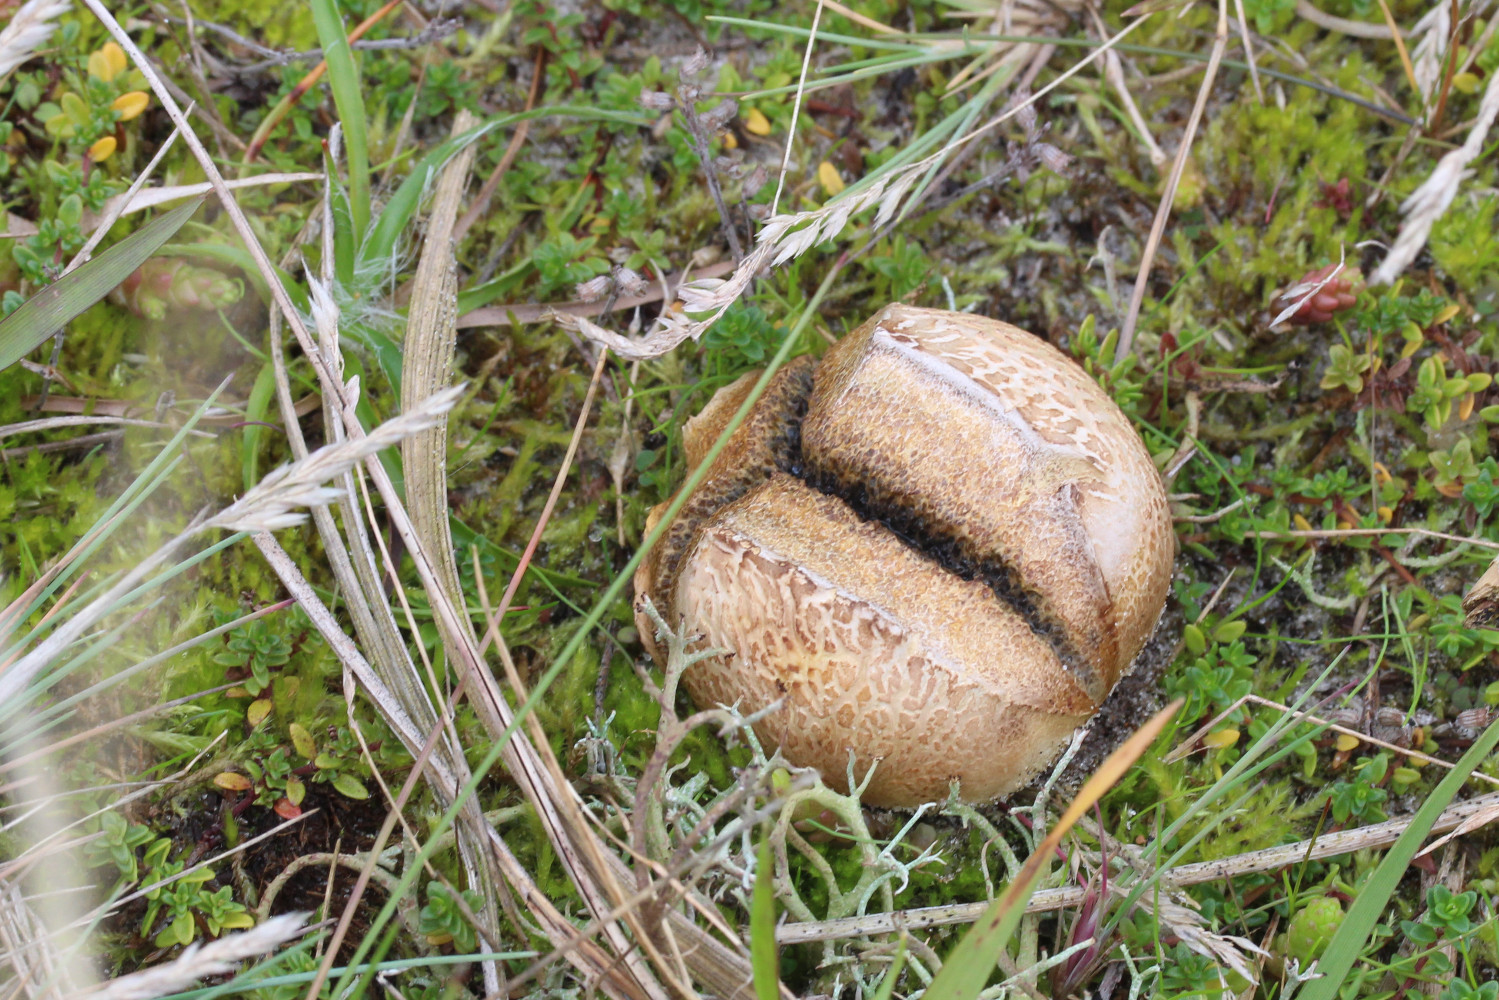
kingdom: Fungi
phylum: Basidiomycota
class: Agaricomycetes
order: Boletales
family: Sclerodermataceae
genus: Scleroderma
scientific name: Scleroderma bovista
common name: bovist-bruskbold
